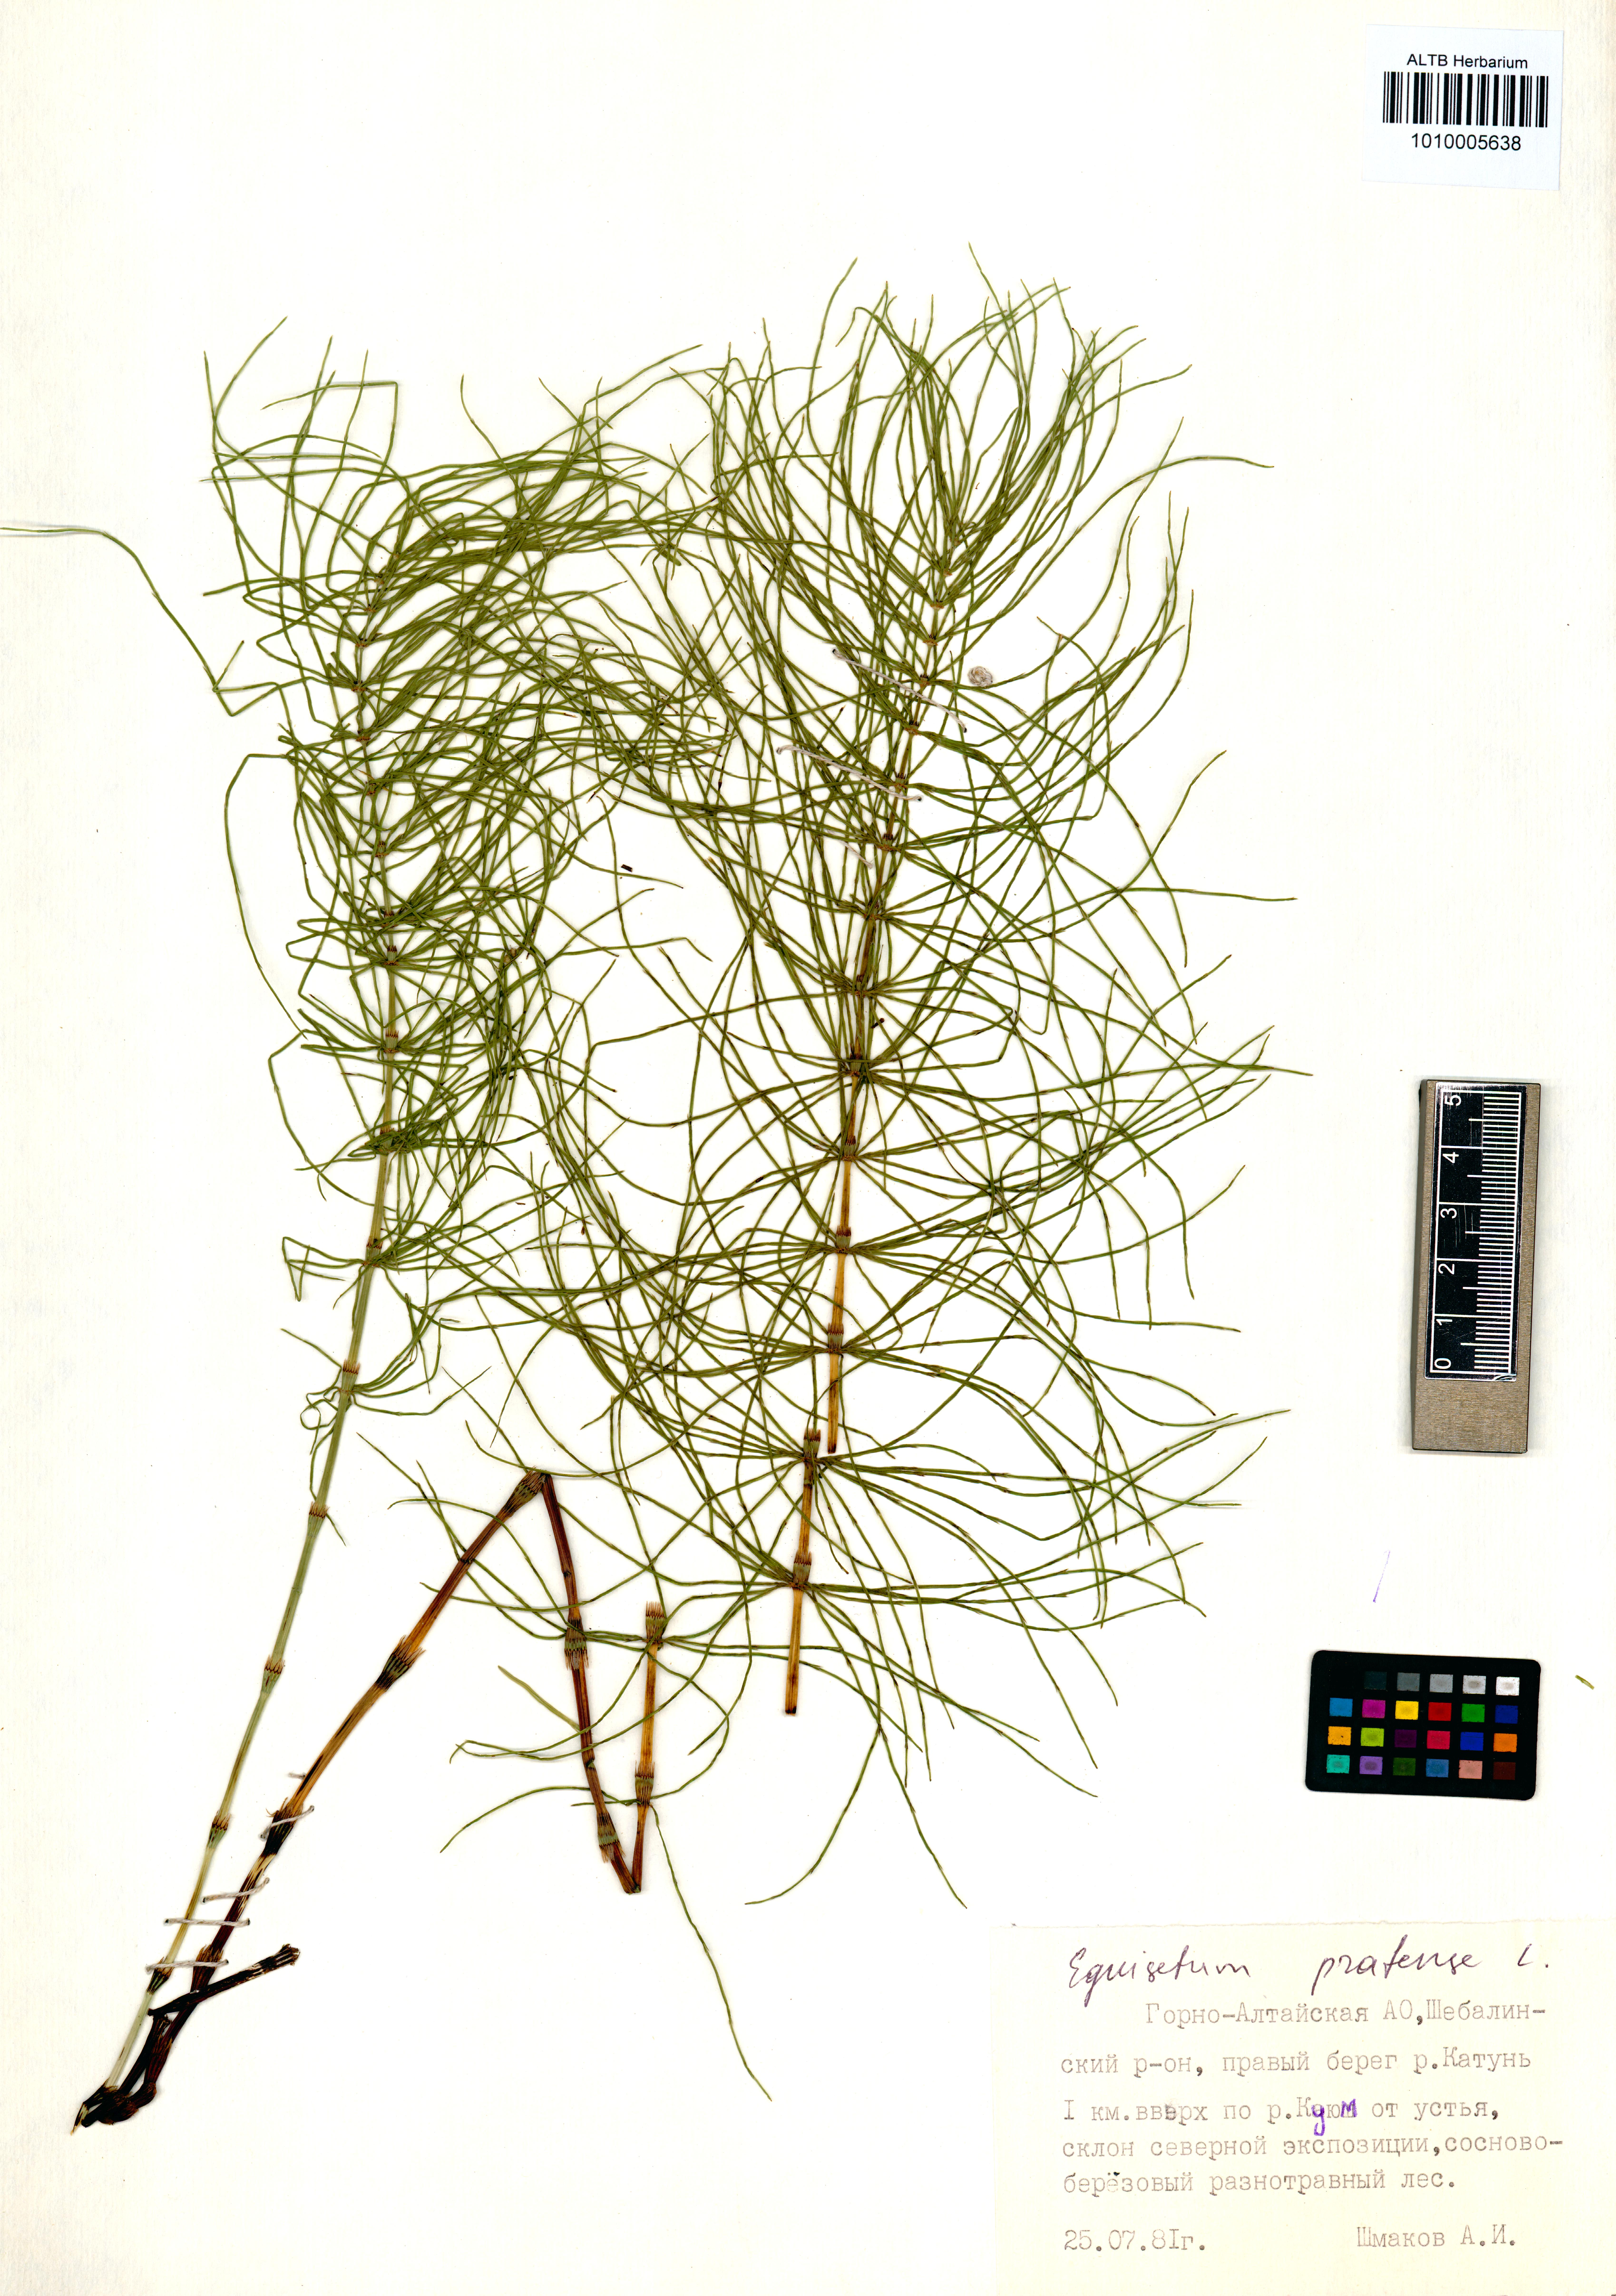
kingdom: Plantae
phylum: Tracheophyta
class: Polypodiopsida
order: Equisetales
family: Equisetaceae
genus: Equisetum
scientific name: Equisetum pratense
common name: Meadow horsetail
